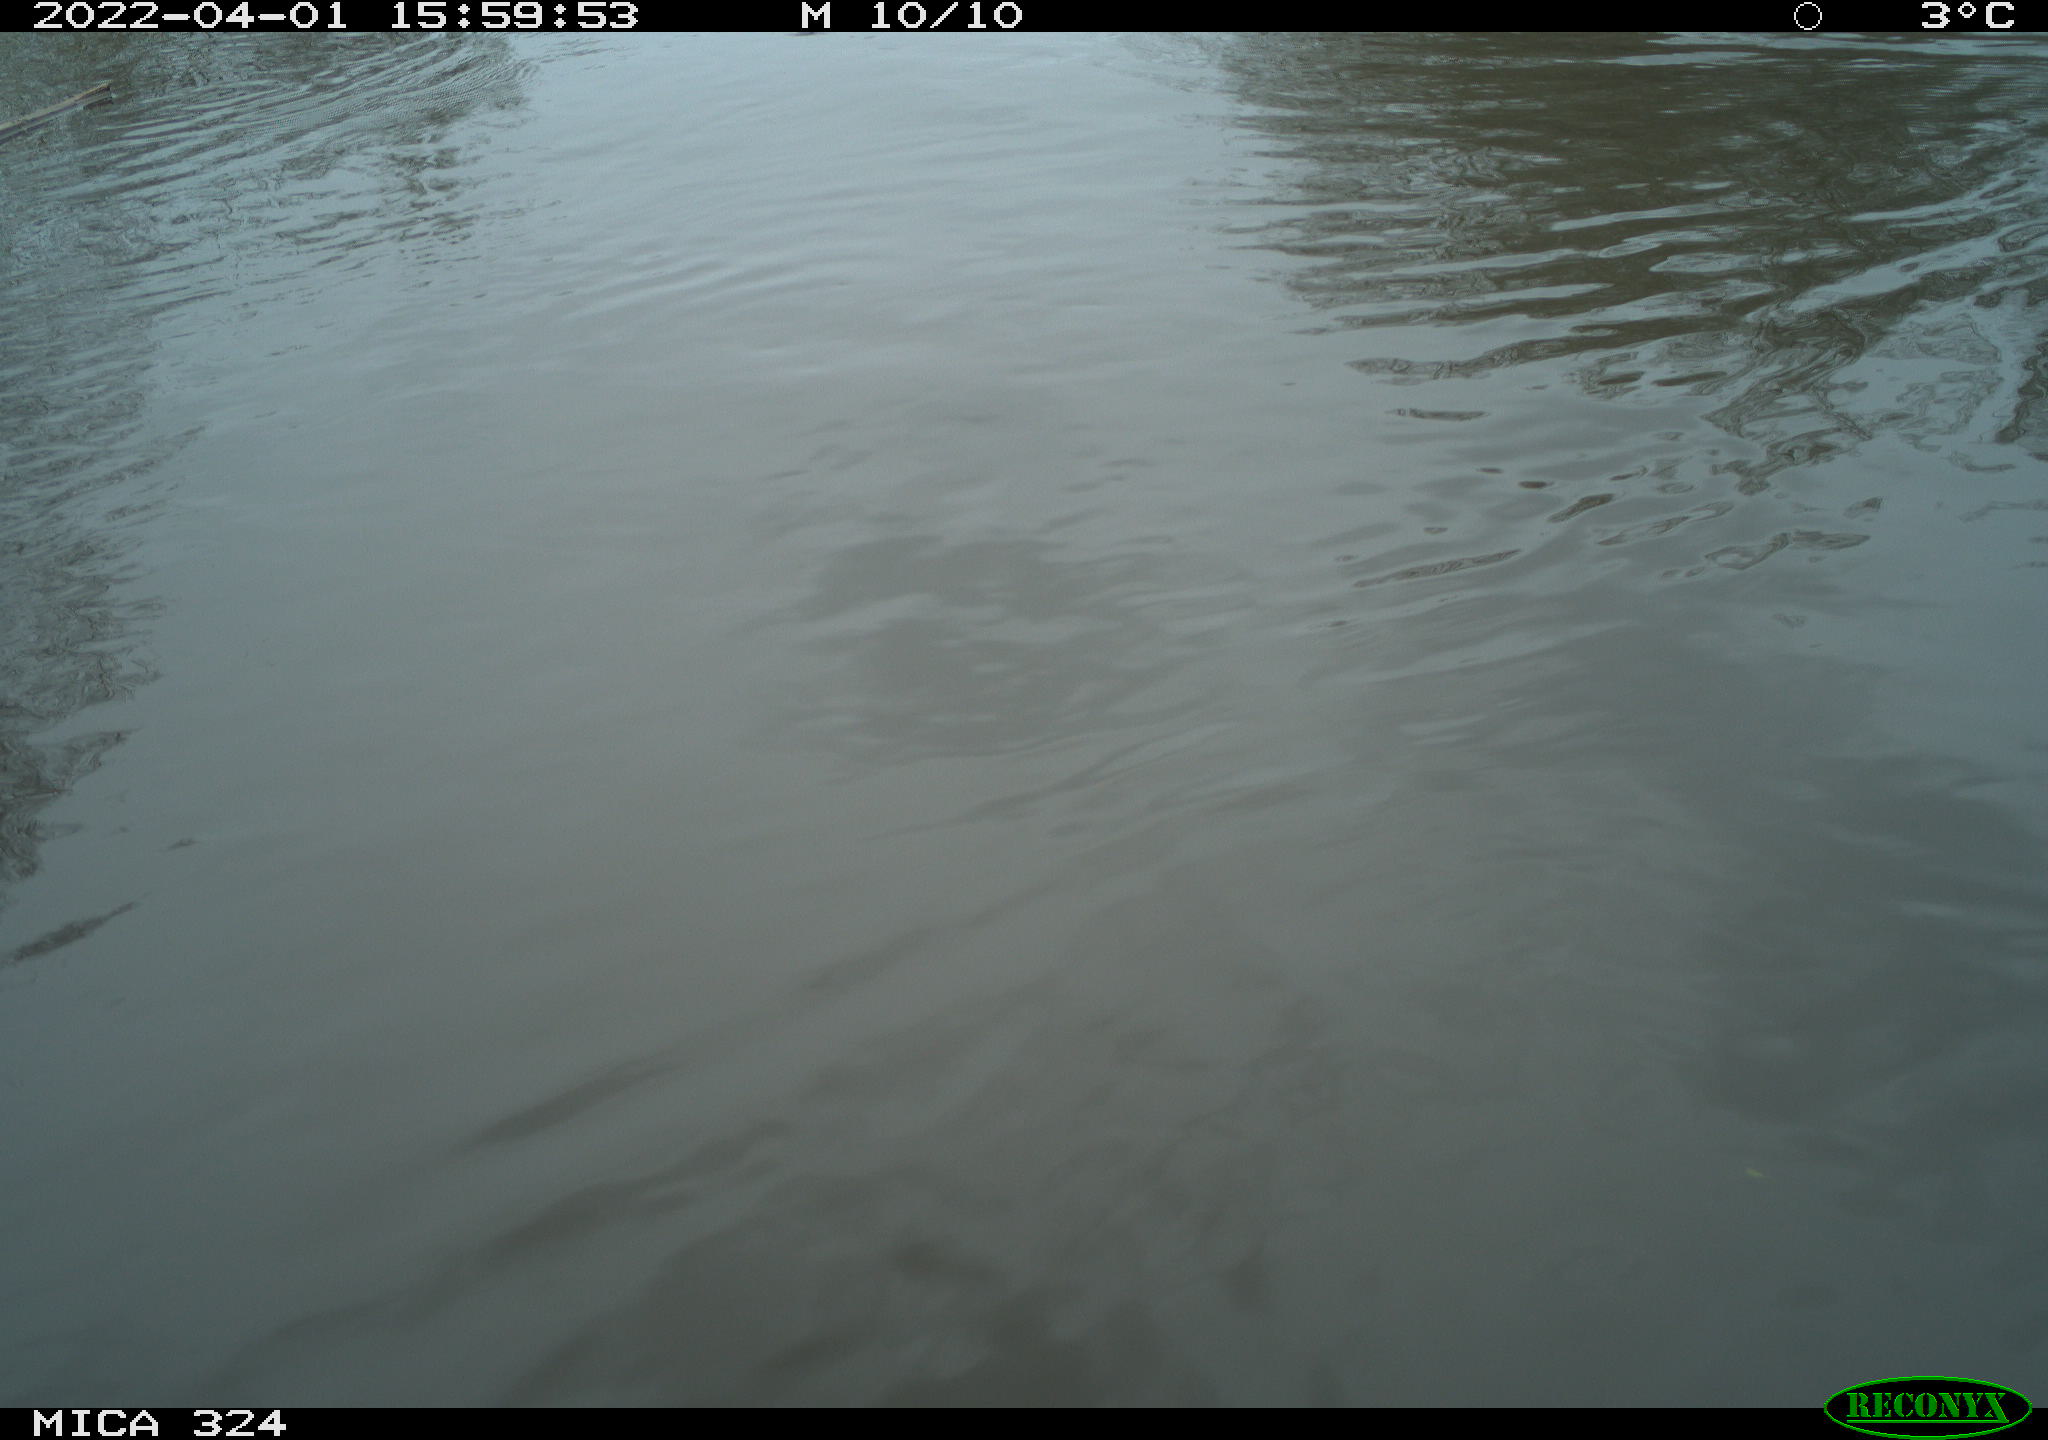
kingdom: Animalia
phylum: Chordata
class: Aves
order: Gruiformes
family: Rallidae
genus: Gallinula
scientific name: Gallinula chloropus
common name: Common moorhen
